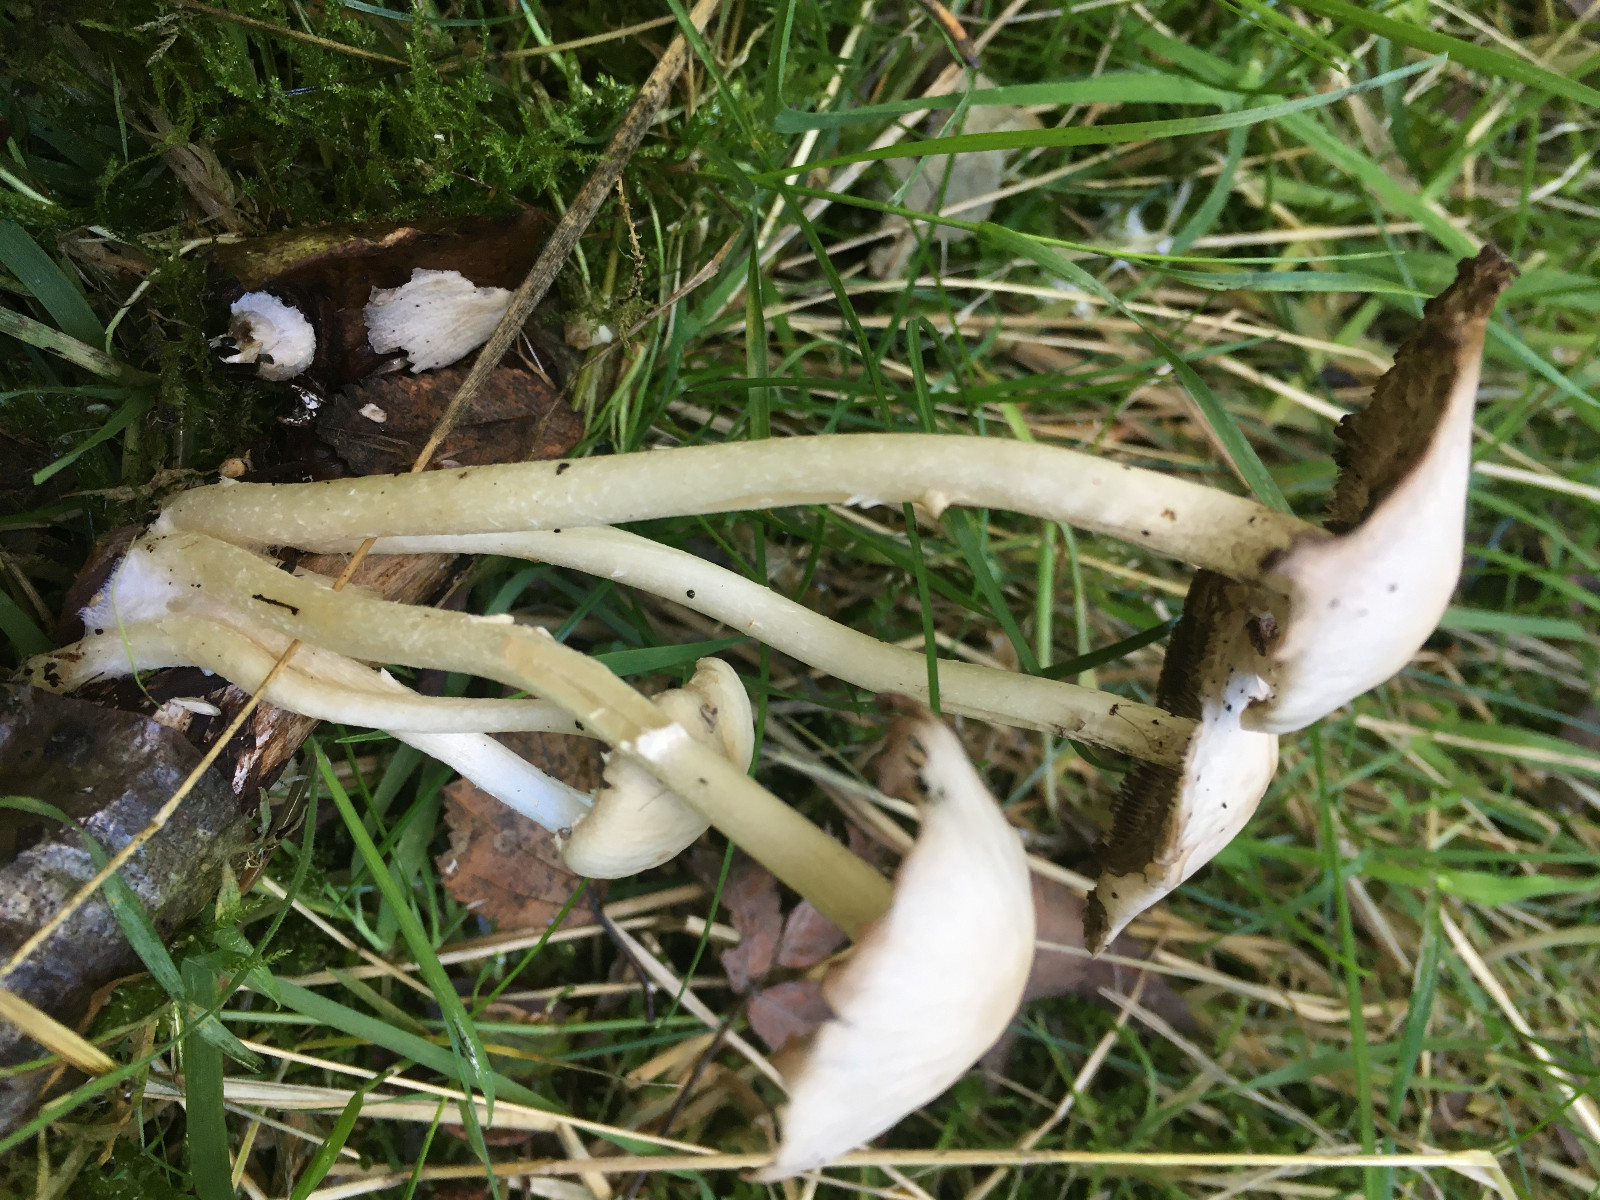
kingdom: Fungi
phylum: Basidiomycota
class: Agaricomycetes
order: Agaricales
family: Psathyrellaceae
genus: Candolleomyces
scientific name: Candolleomyces candolleanus
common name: Candolles mørkhat
